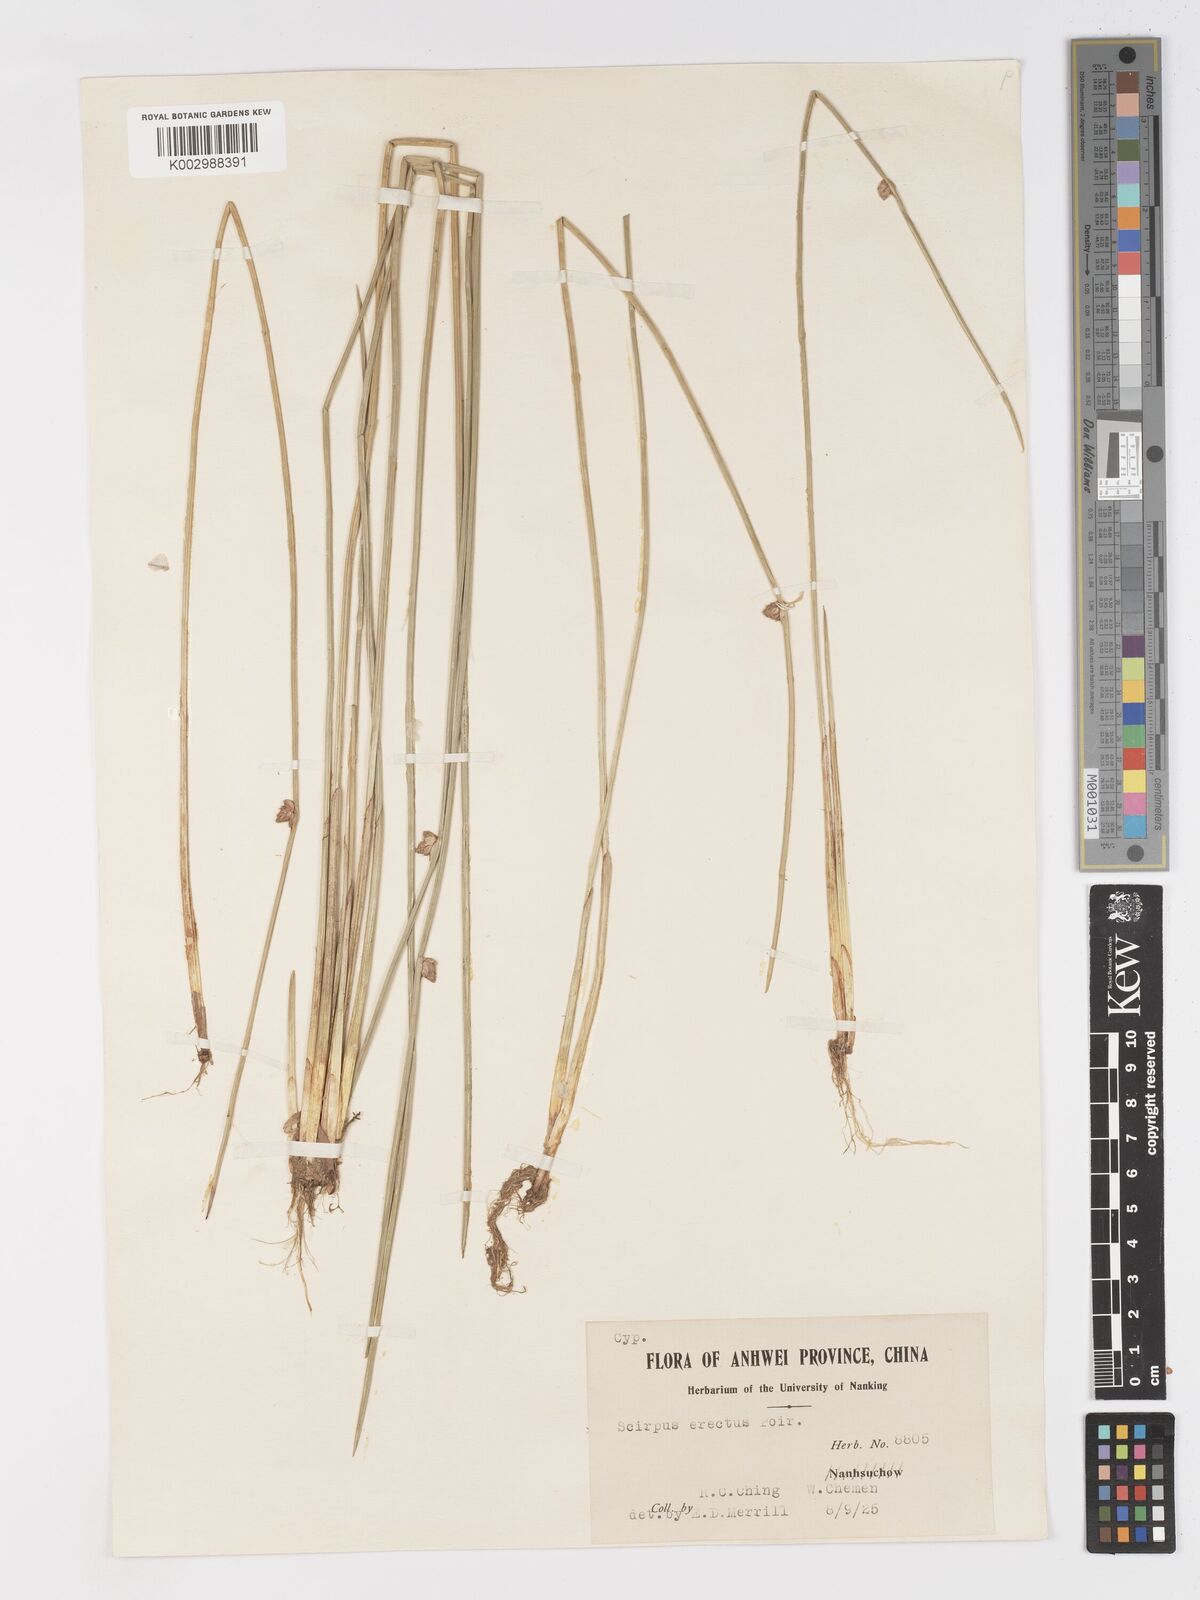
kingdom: Plantae
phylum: Tracheophyta
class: Liliopsida
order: Poales
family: Cyperaceae
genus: Schoenoplectiella
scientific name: Schoenoplectiella erecta
